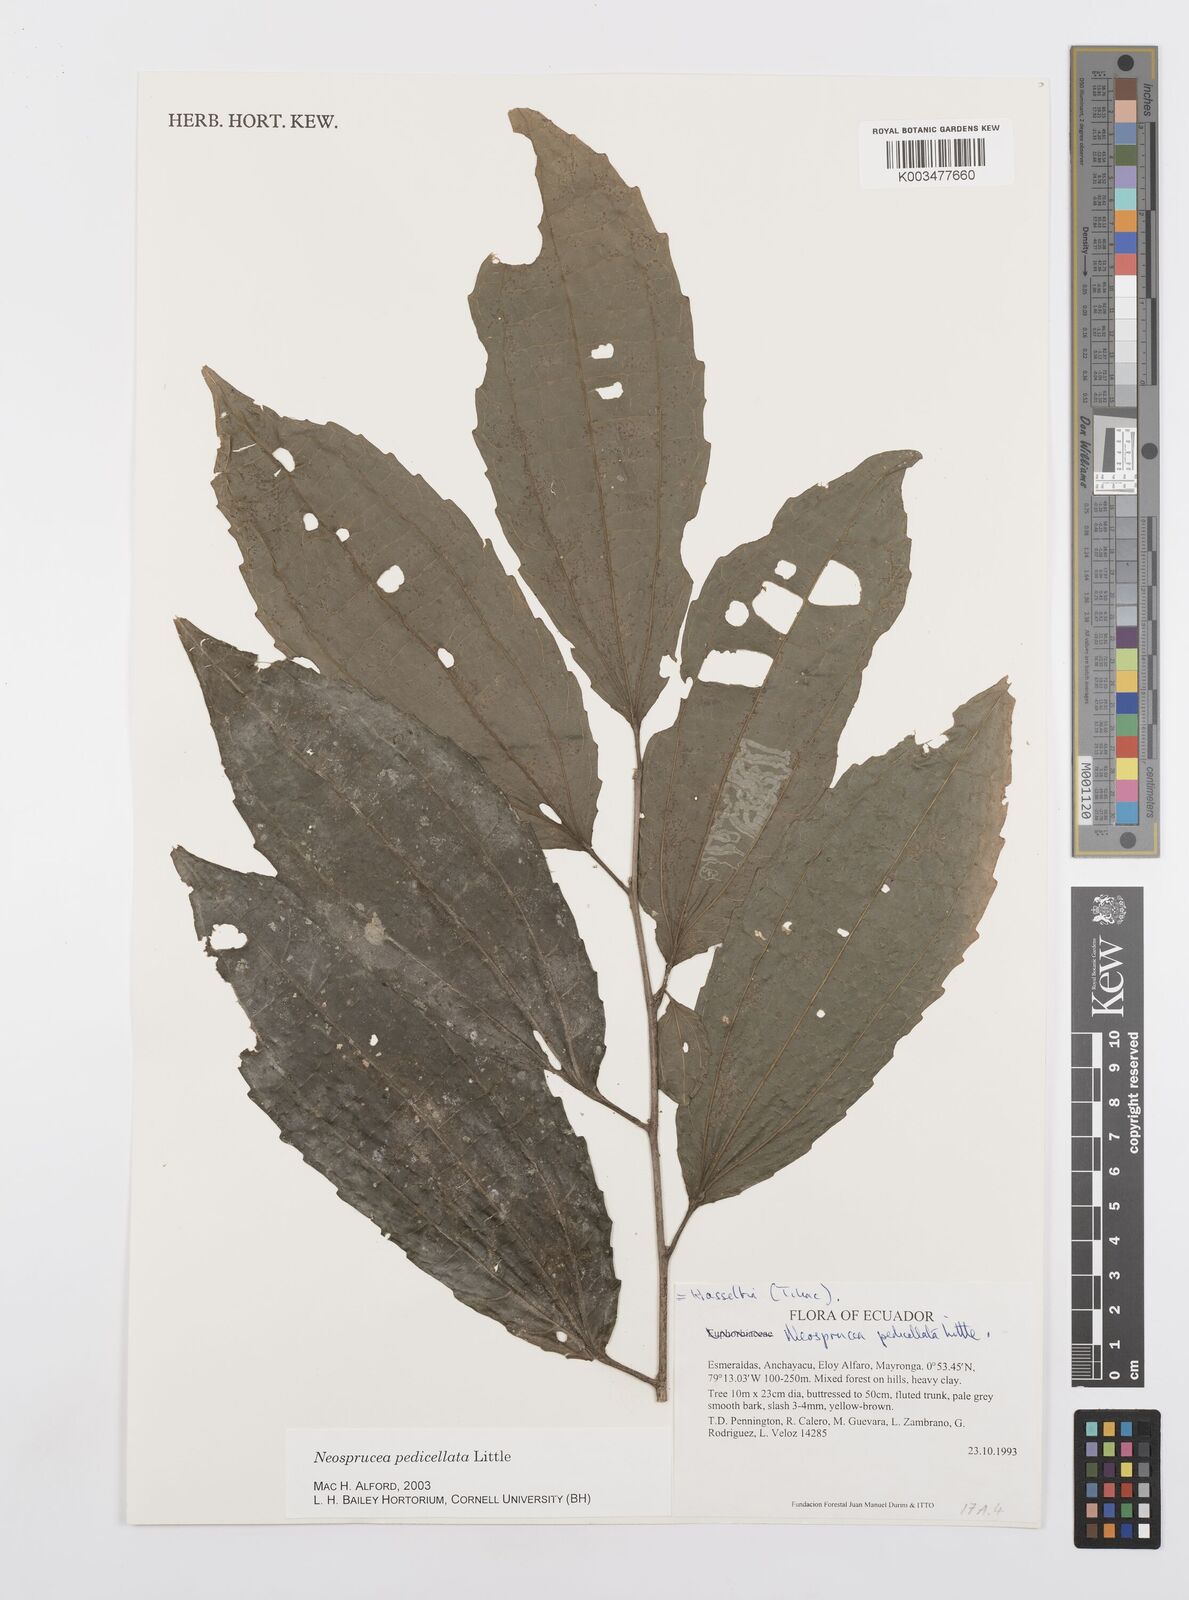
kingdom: Plantae
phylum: Tracheophyta
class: Magnoliopsida
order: Malpighiales
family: Salicaceae
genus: Neosprucea
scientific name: Neosprucea pedicellata
